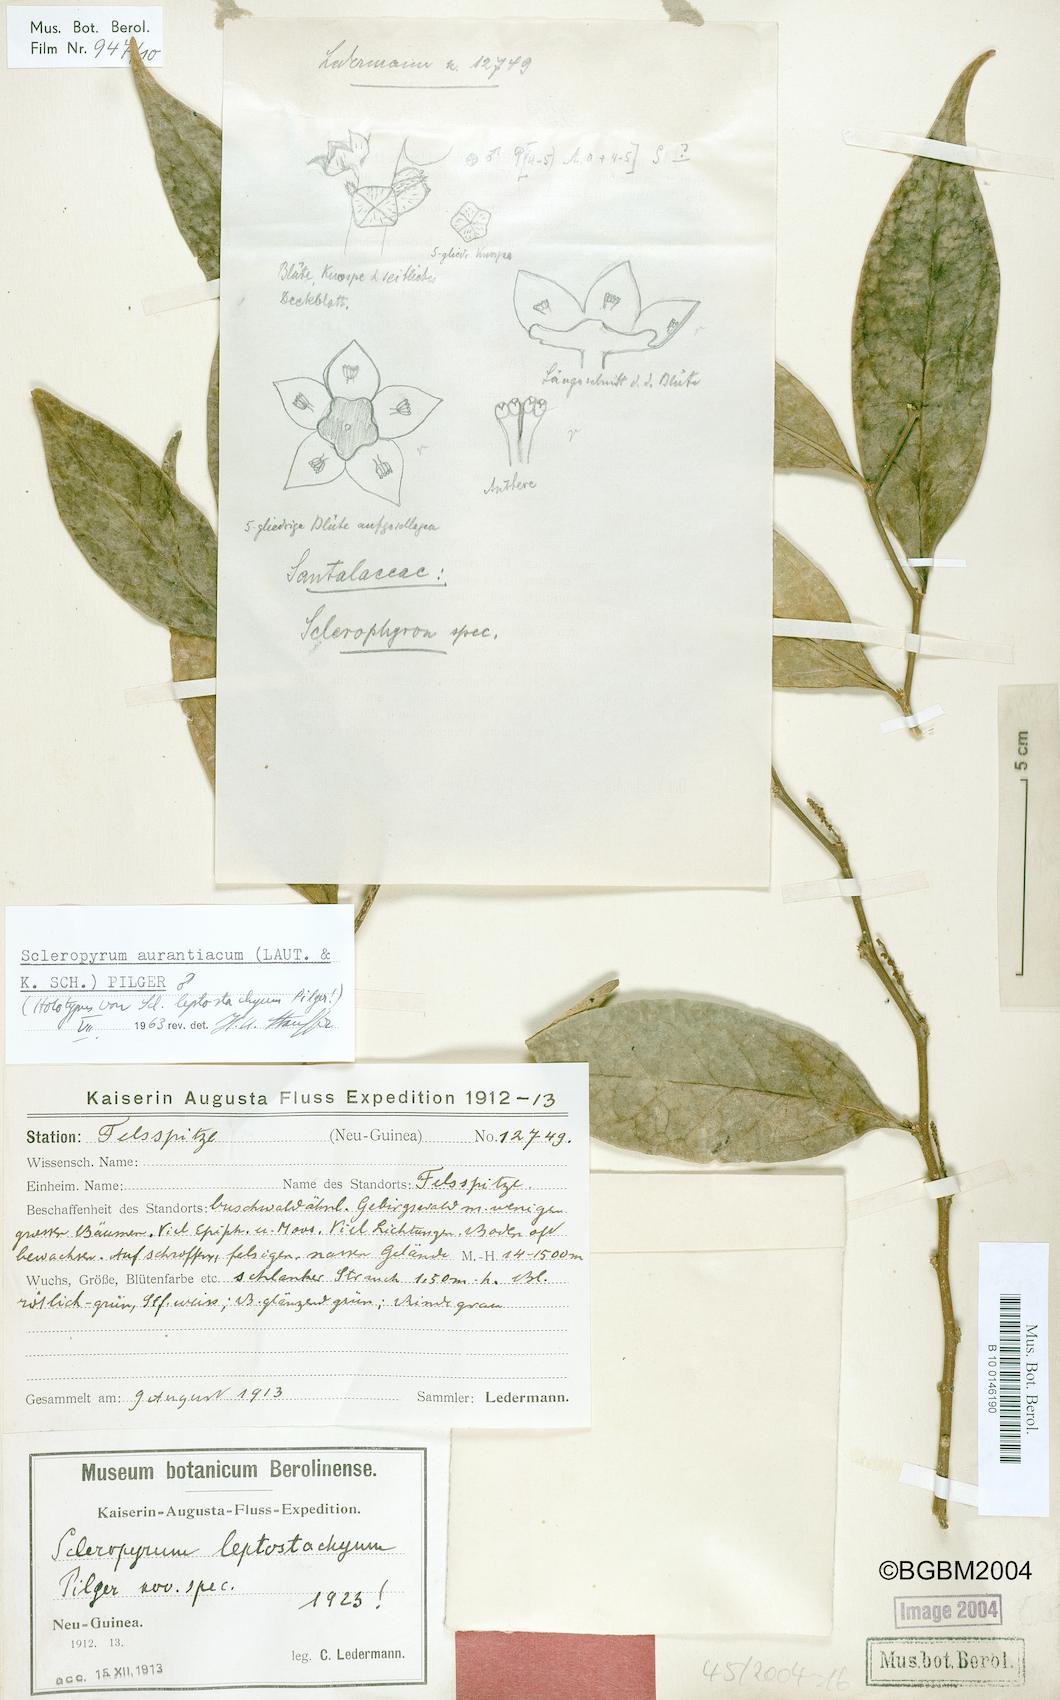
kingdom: Plantae
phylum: Tracheophyta
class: Magnoliopsida
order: Santalales
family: Cervantesiaceae
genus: Scleropyrum
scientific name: Scleropyrum aurantiacum
